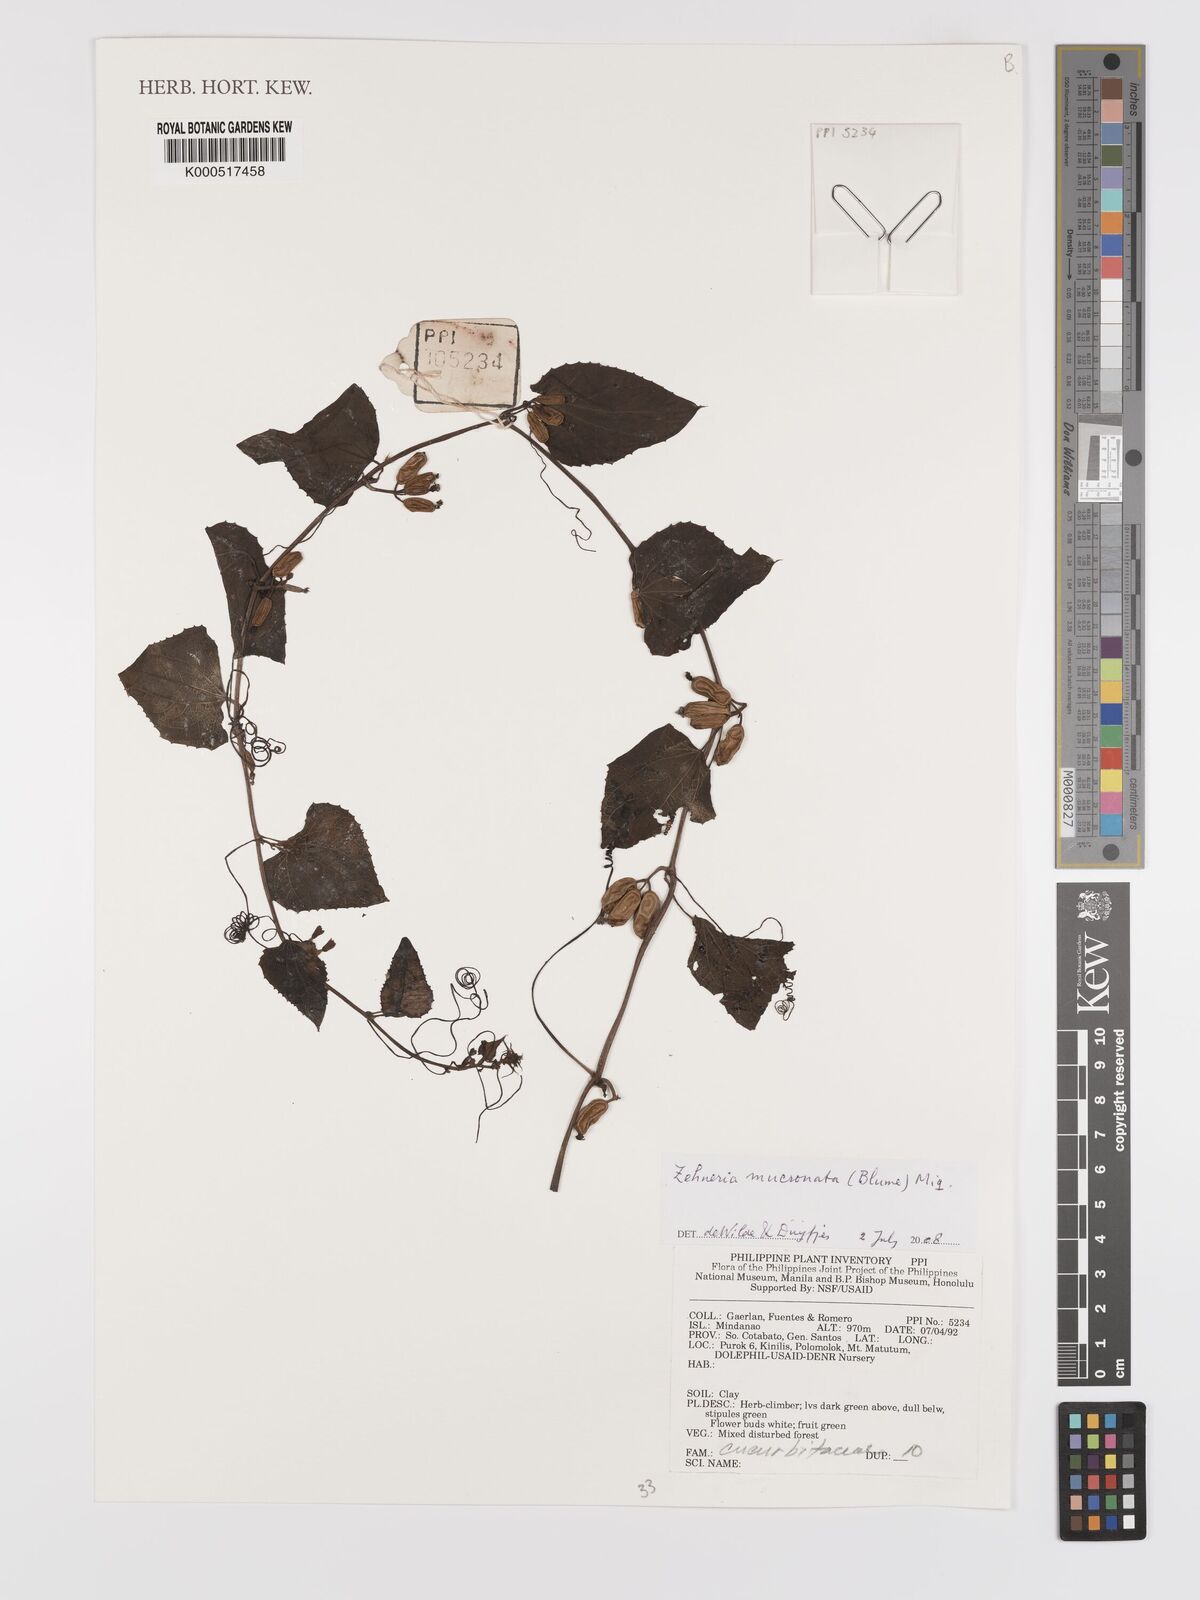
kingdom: Plantae
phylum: Tracheophyta
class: Magnoliopsida
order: Cucurbitales
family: Cucurbitaceae
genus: Zehneria
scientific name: Zehneria mucronata
